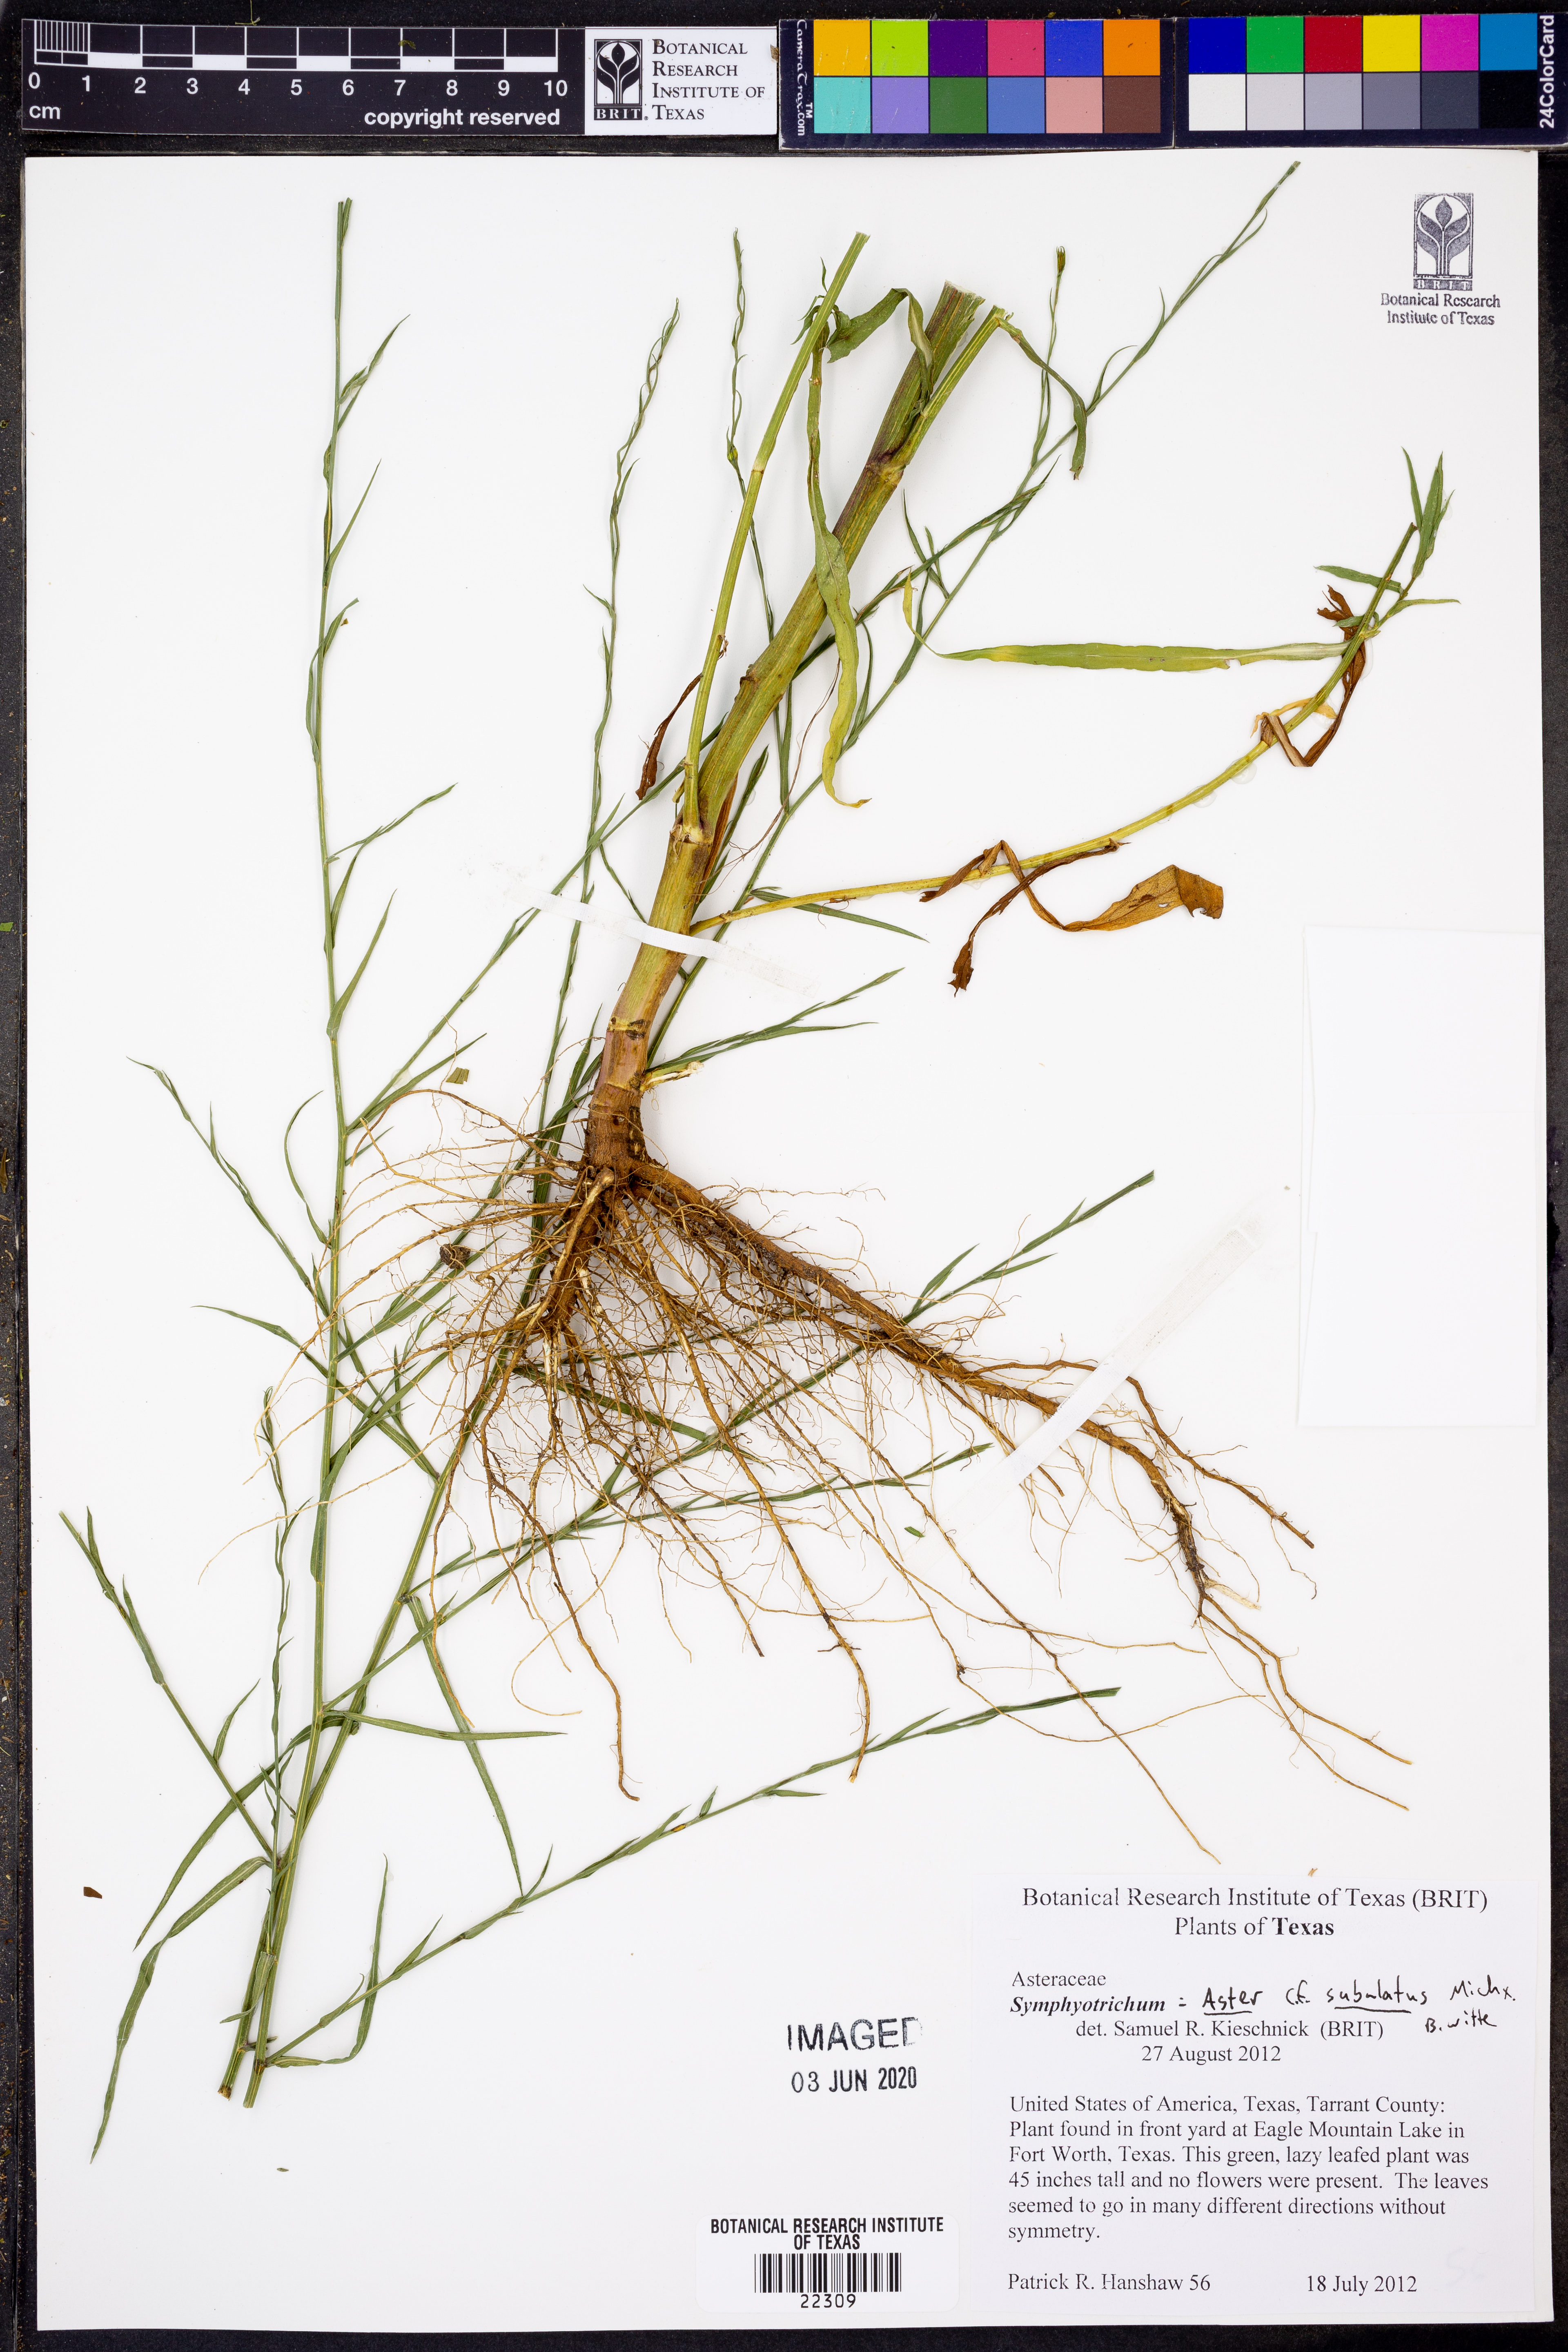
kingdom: Plantae
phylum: Tracheophyta
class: Magnoliopsida
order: Asterales
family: Asteraceae
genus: Symphyotrichum
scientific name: Symphyotrichum subulatum
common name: Annual saltmarsh aster
